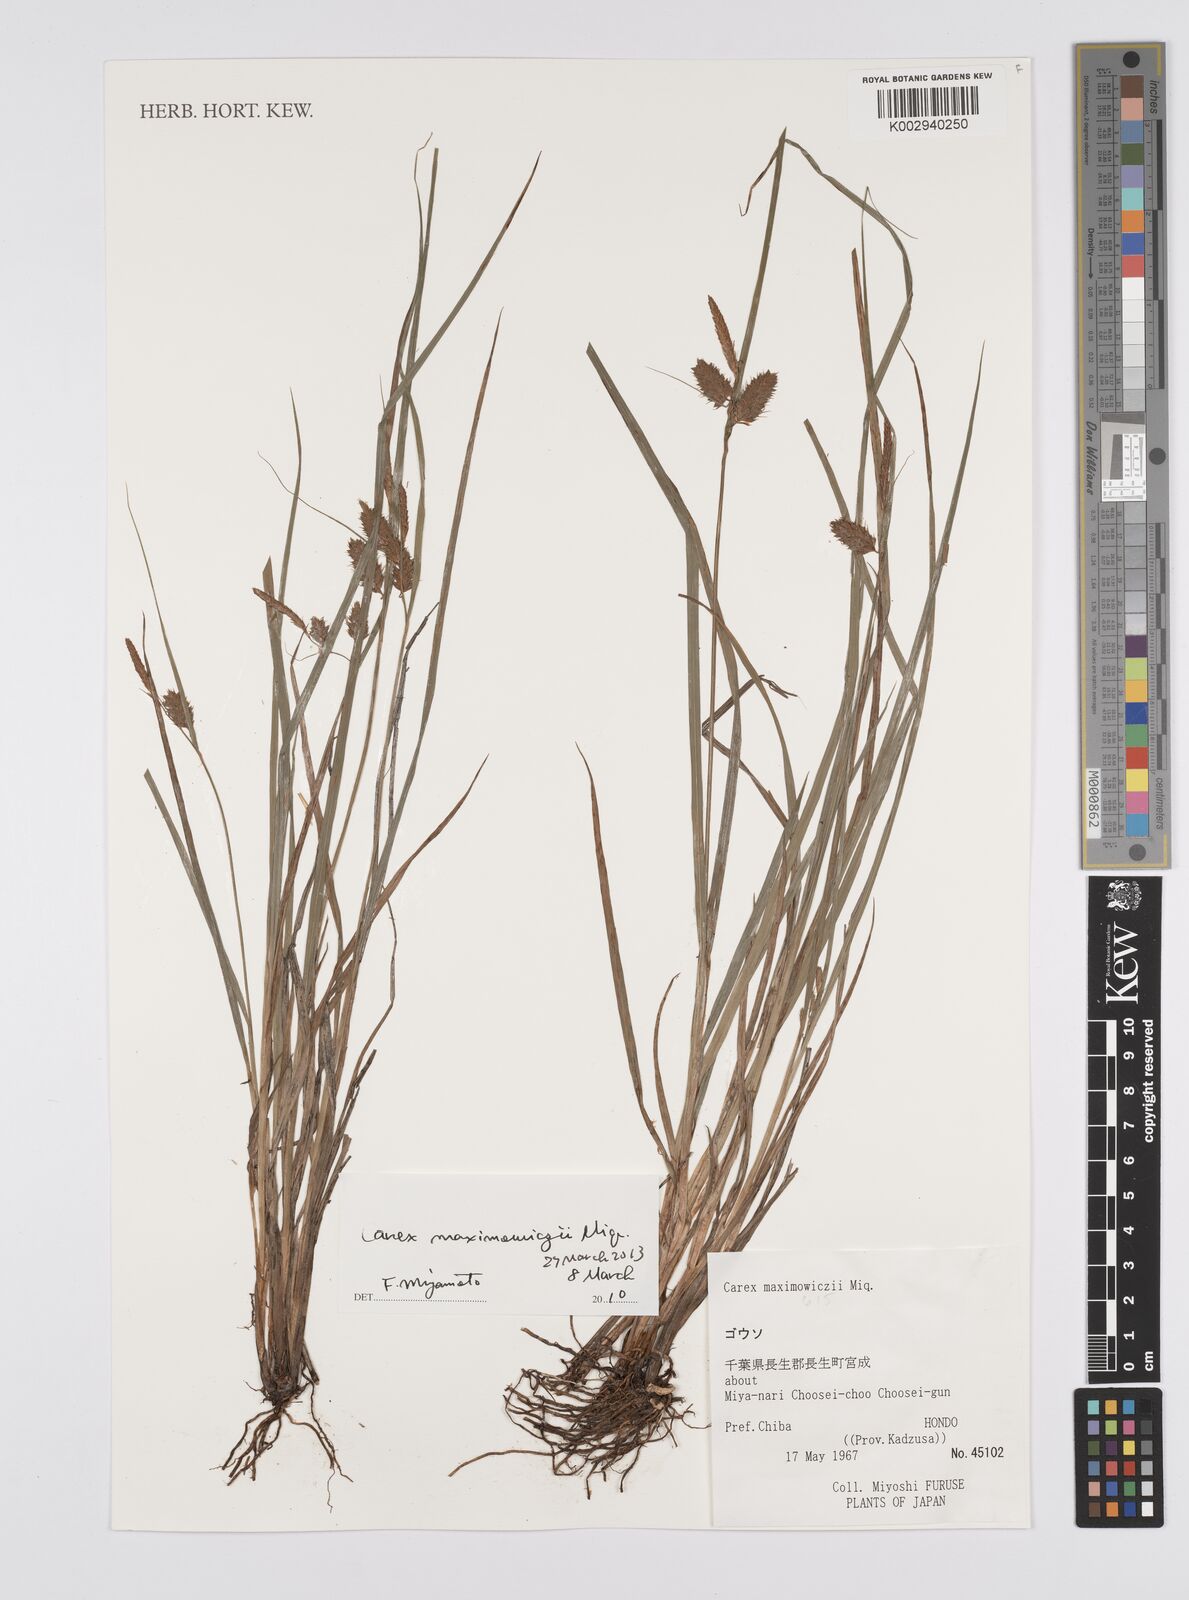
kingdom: Plantae
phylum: Tracheophyta
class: Liliopsida
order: Poales
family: Cyperaceae
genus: Carex
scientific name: Carex pruinosa
